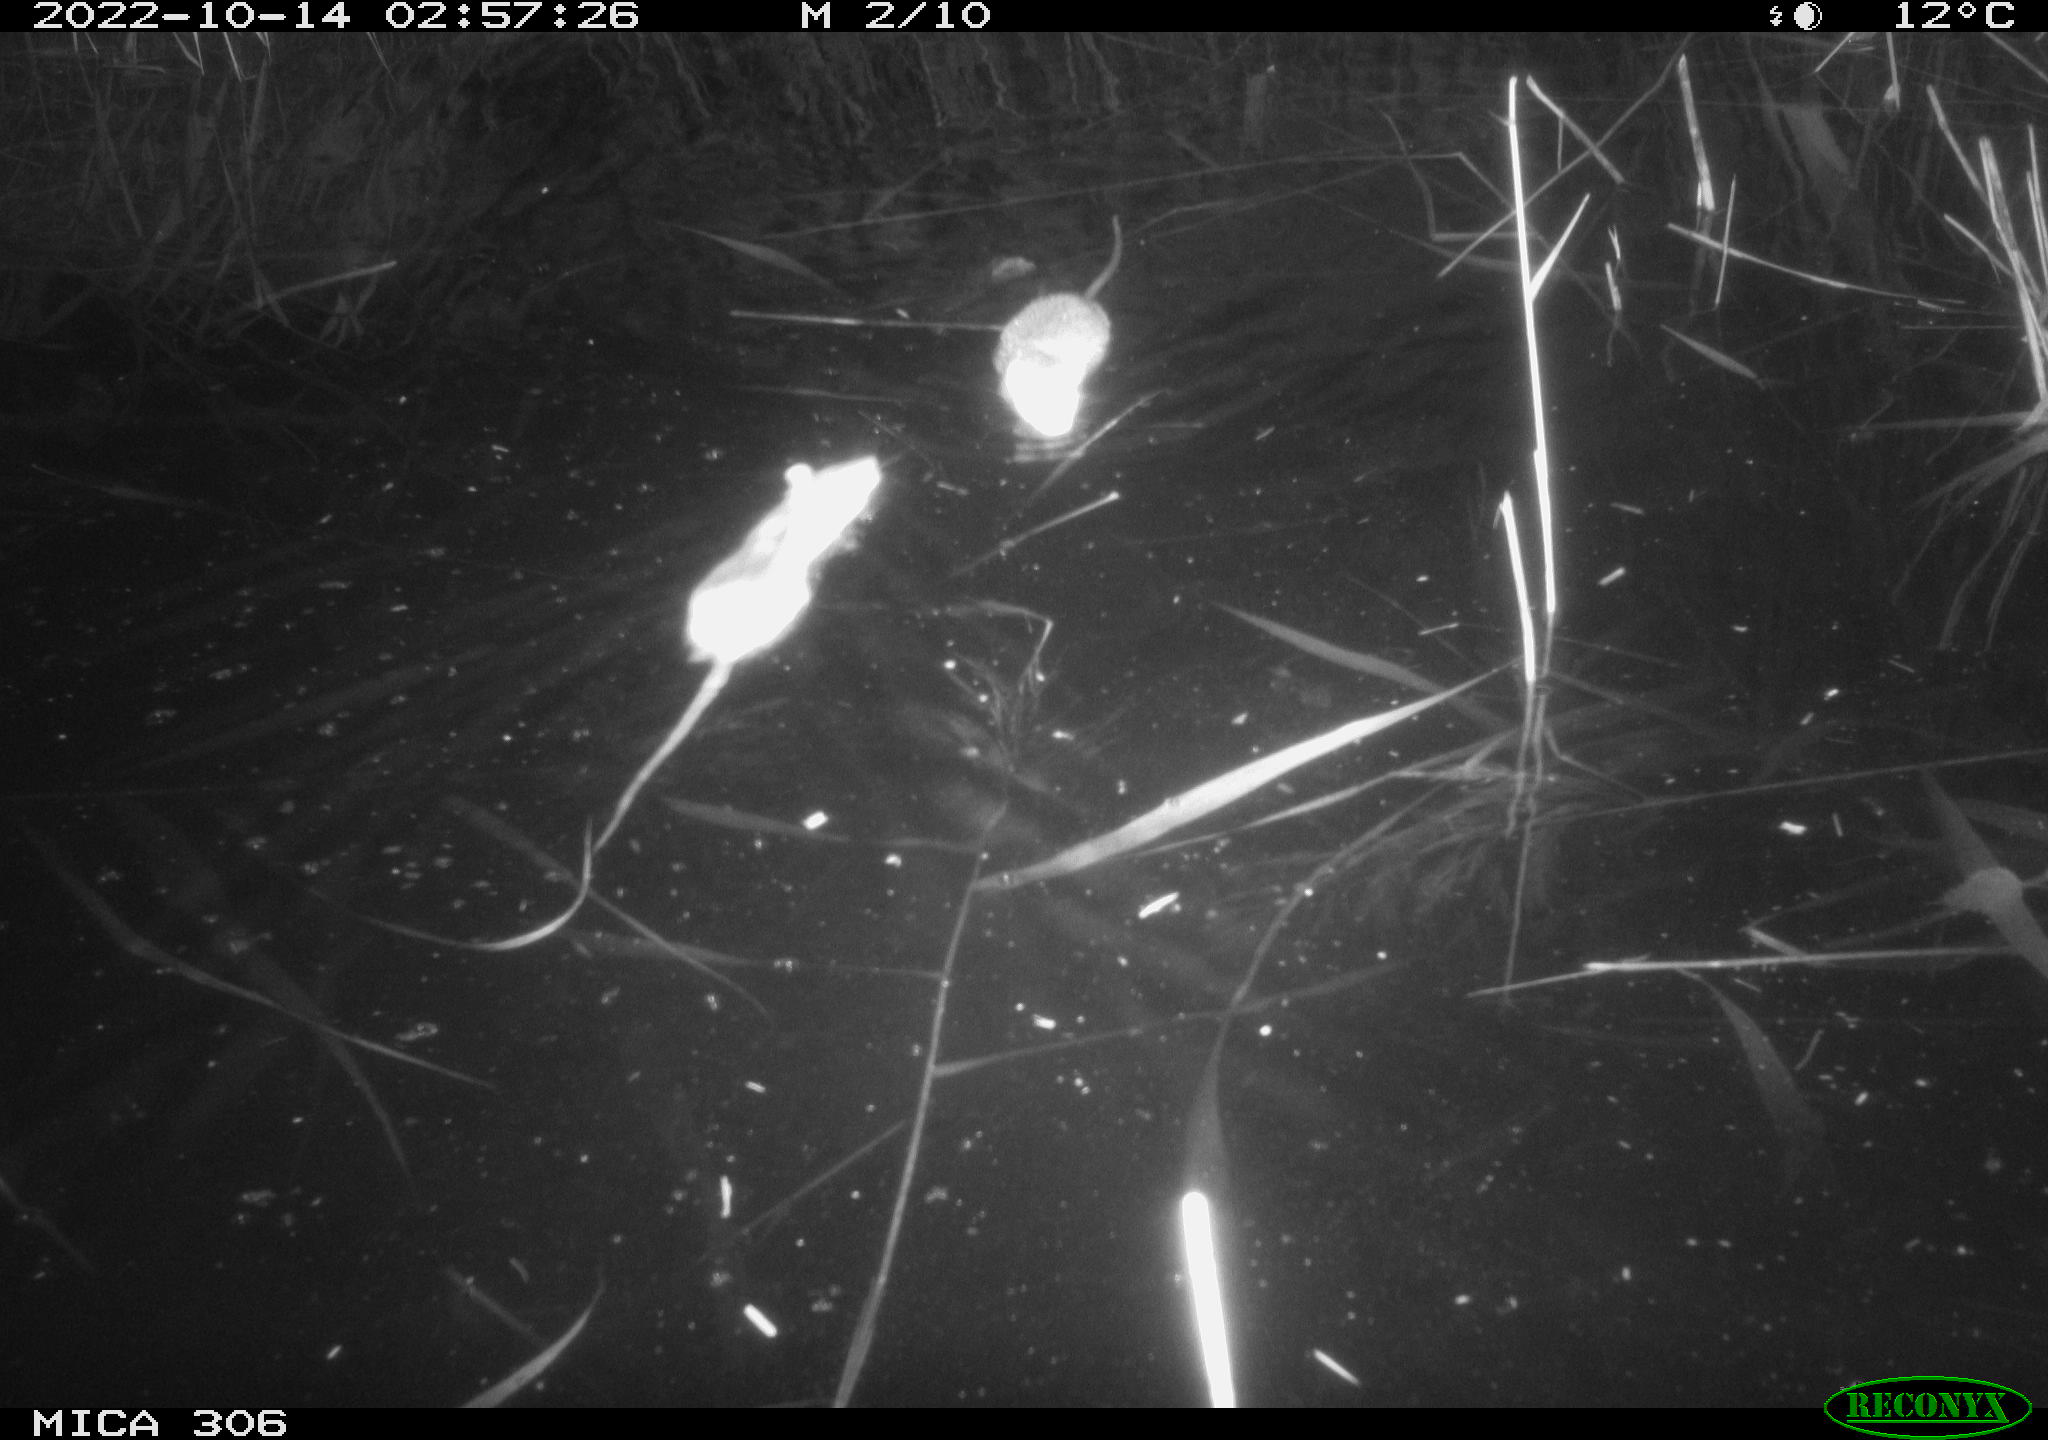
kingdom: Animalia
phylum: Chordata
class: Mammalia
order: Rodentia
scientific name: Rodentia
